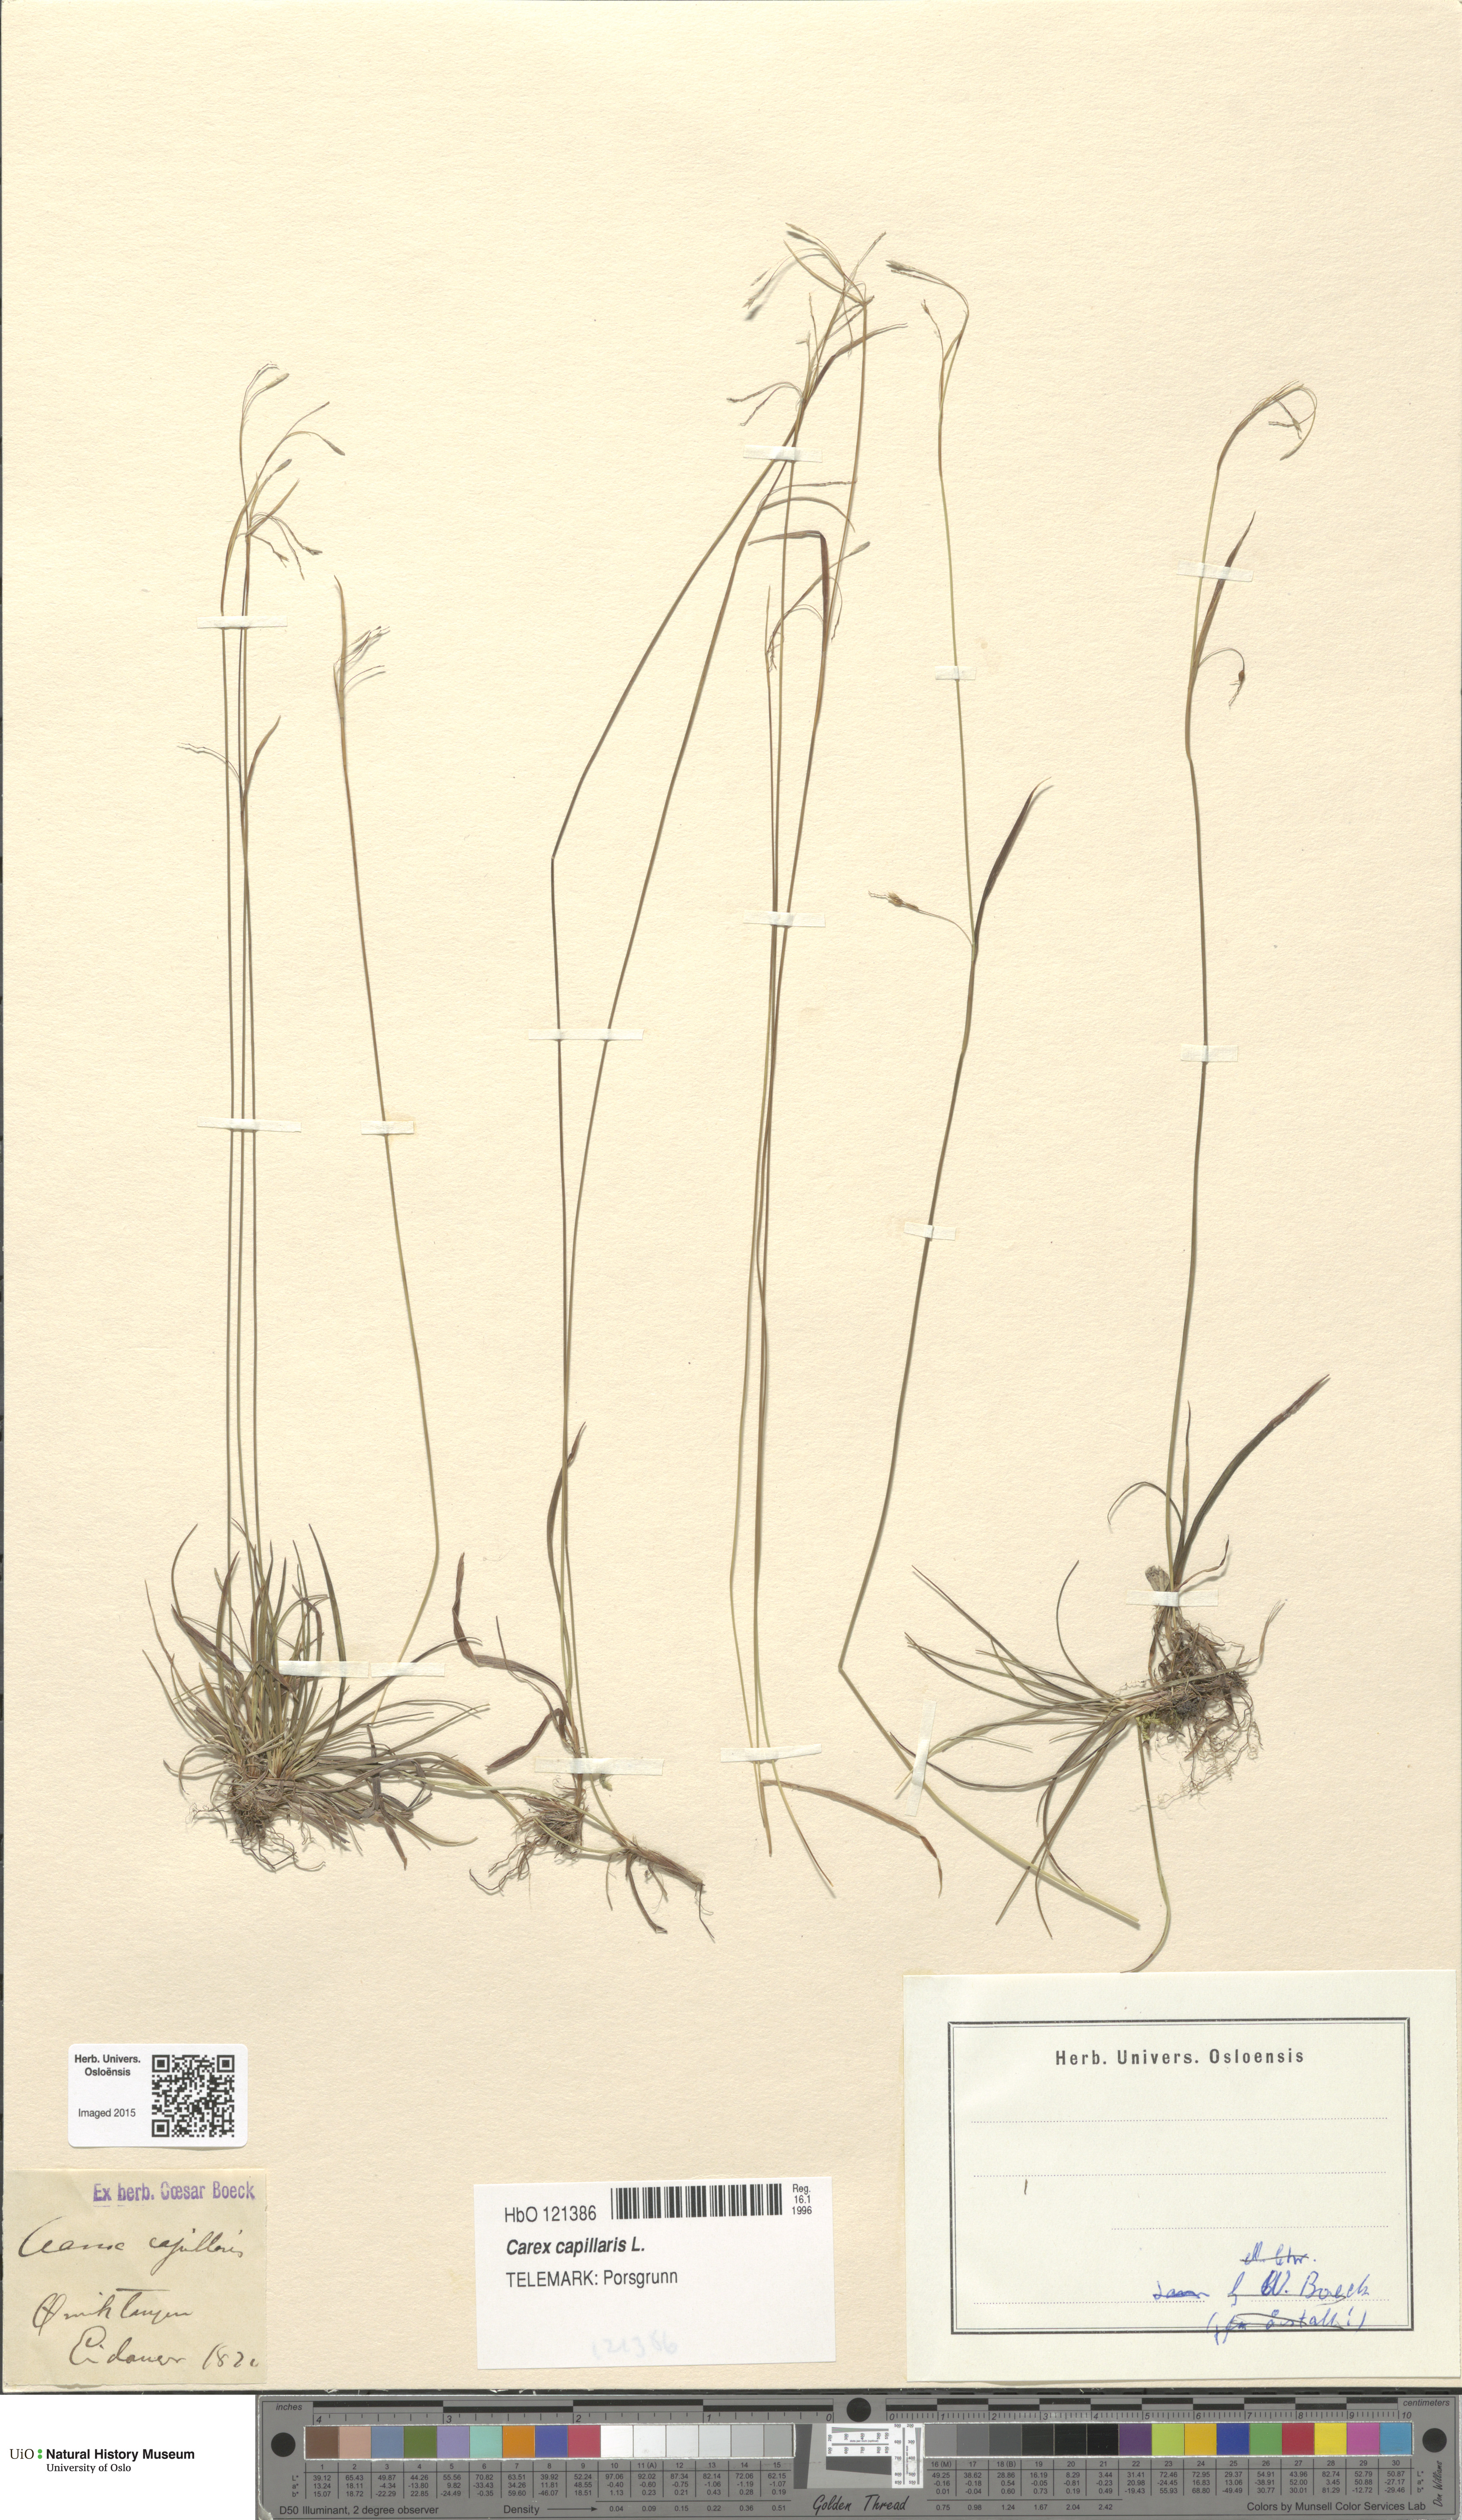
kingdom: Plantae
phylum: Tracheophyta
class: Liliopsida
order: Poales
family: Cyperaceae
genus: Carex
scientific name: Carex capillaris
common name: Hair sedge
